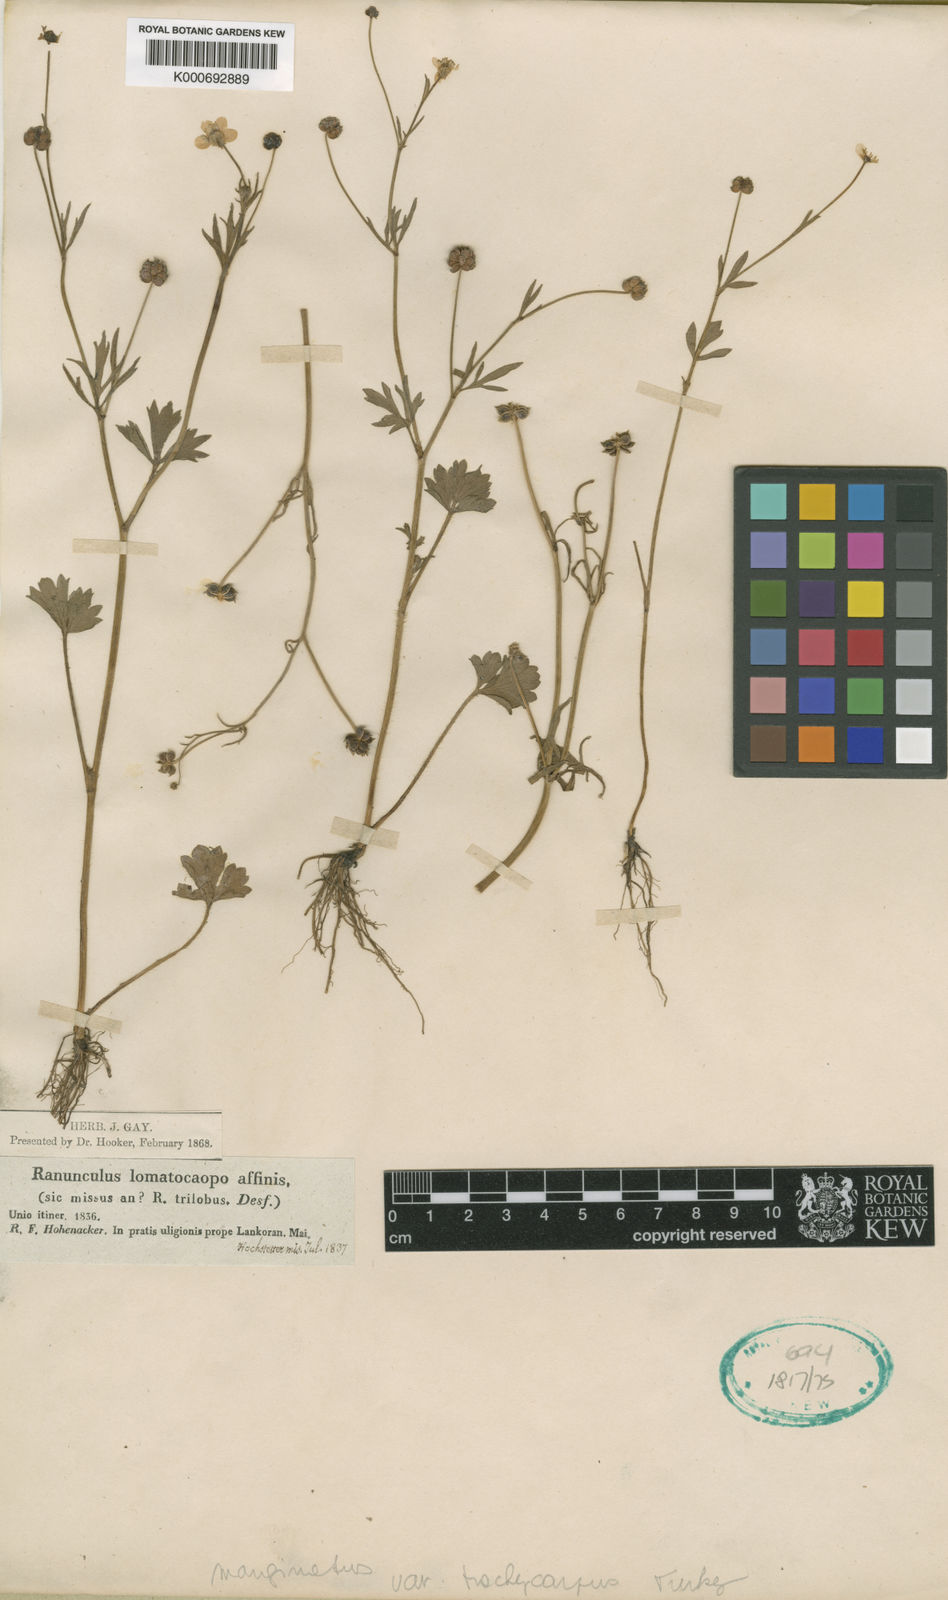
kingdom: Plantae
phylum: Tracheophyta
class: Magnoliopsida
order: Ranunculales
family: Ranunculaceae
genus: Ranunculus
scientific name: Ranunculus marginatus
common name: St. martin's buttercup
